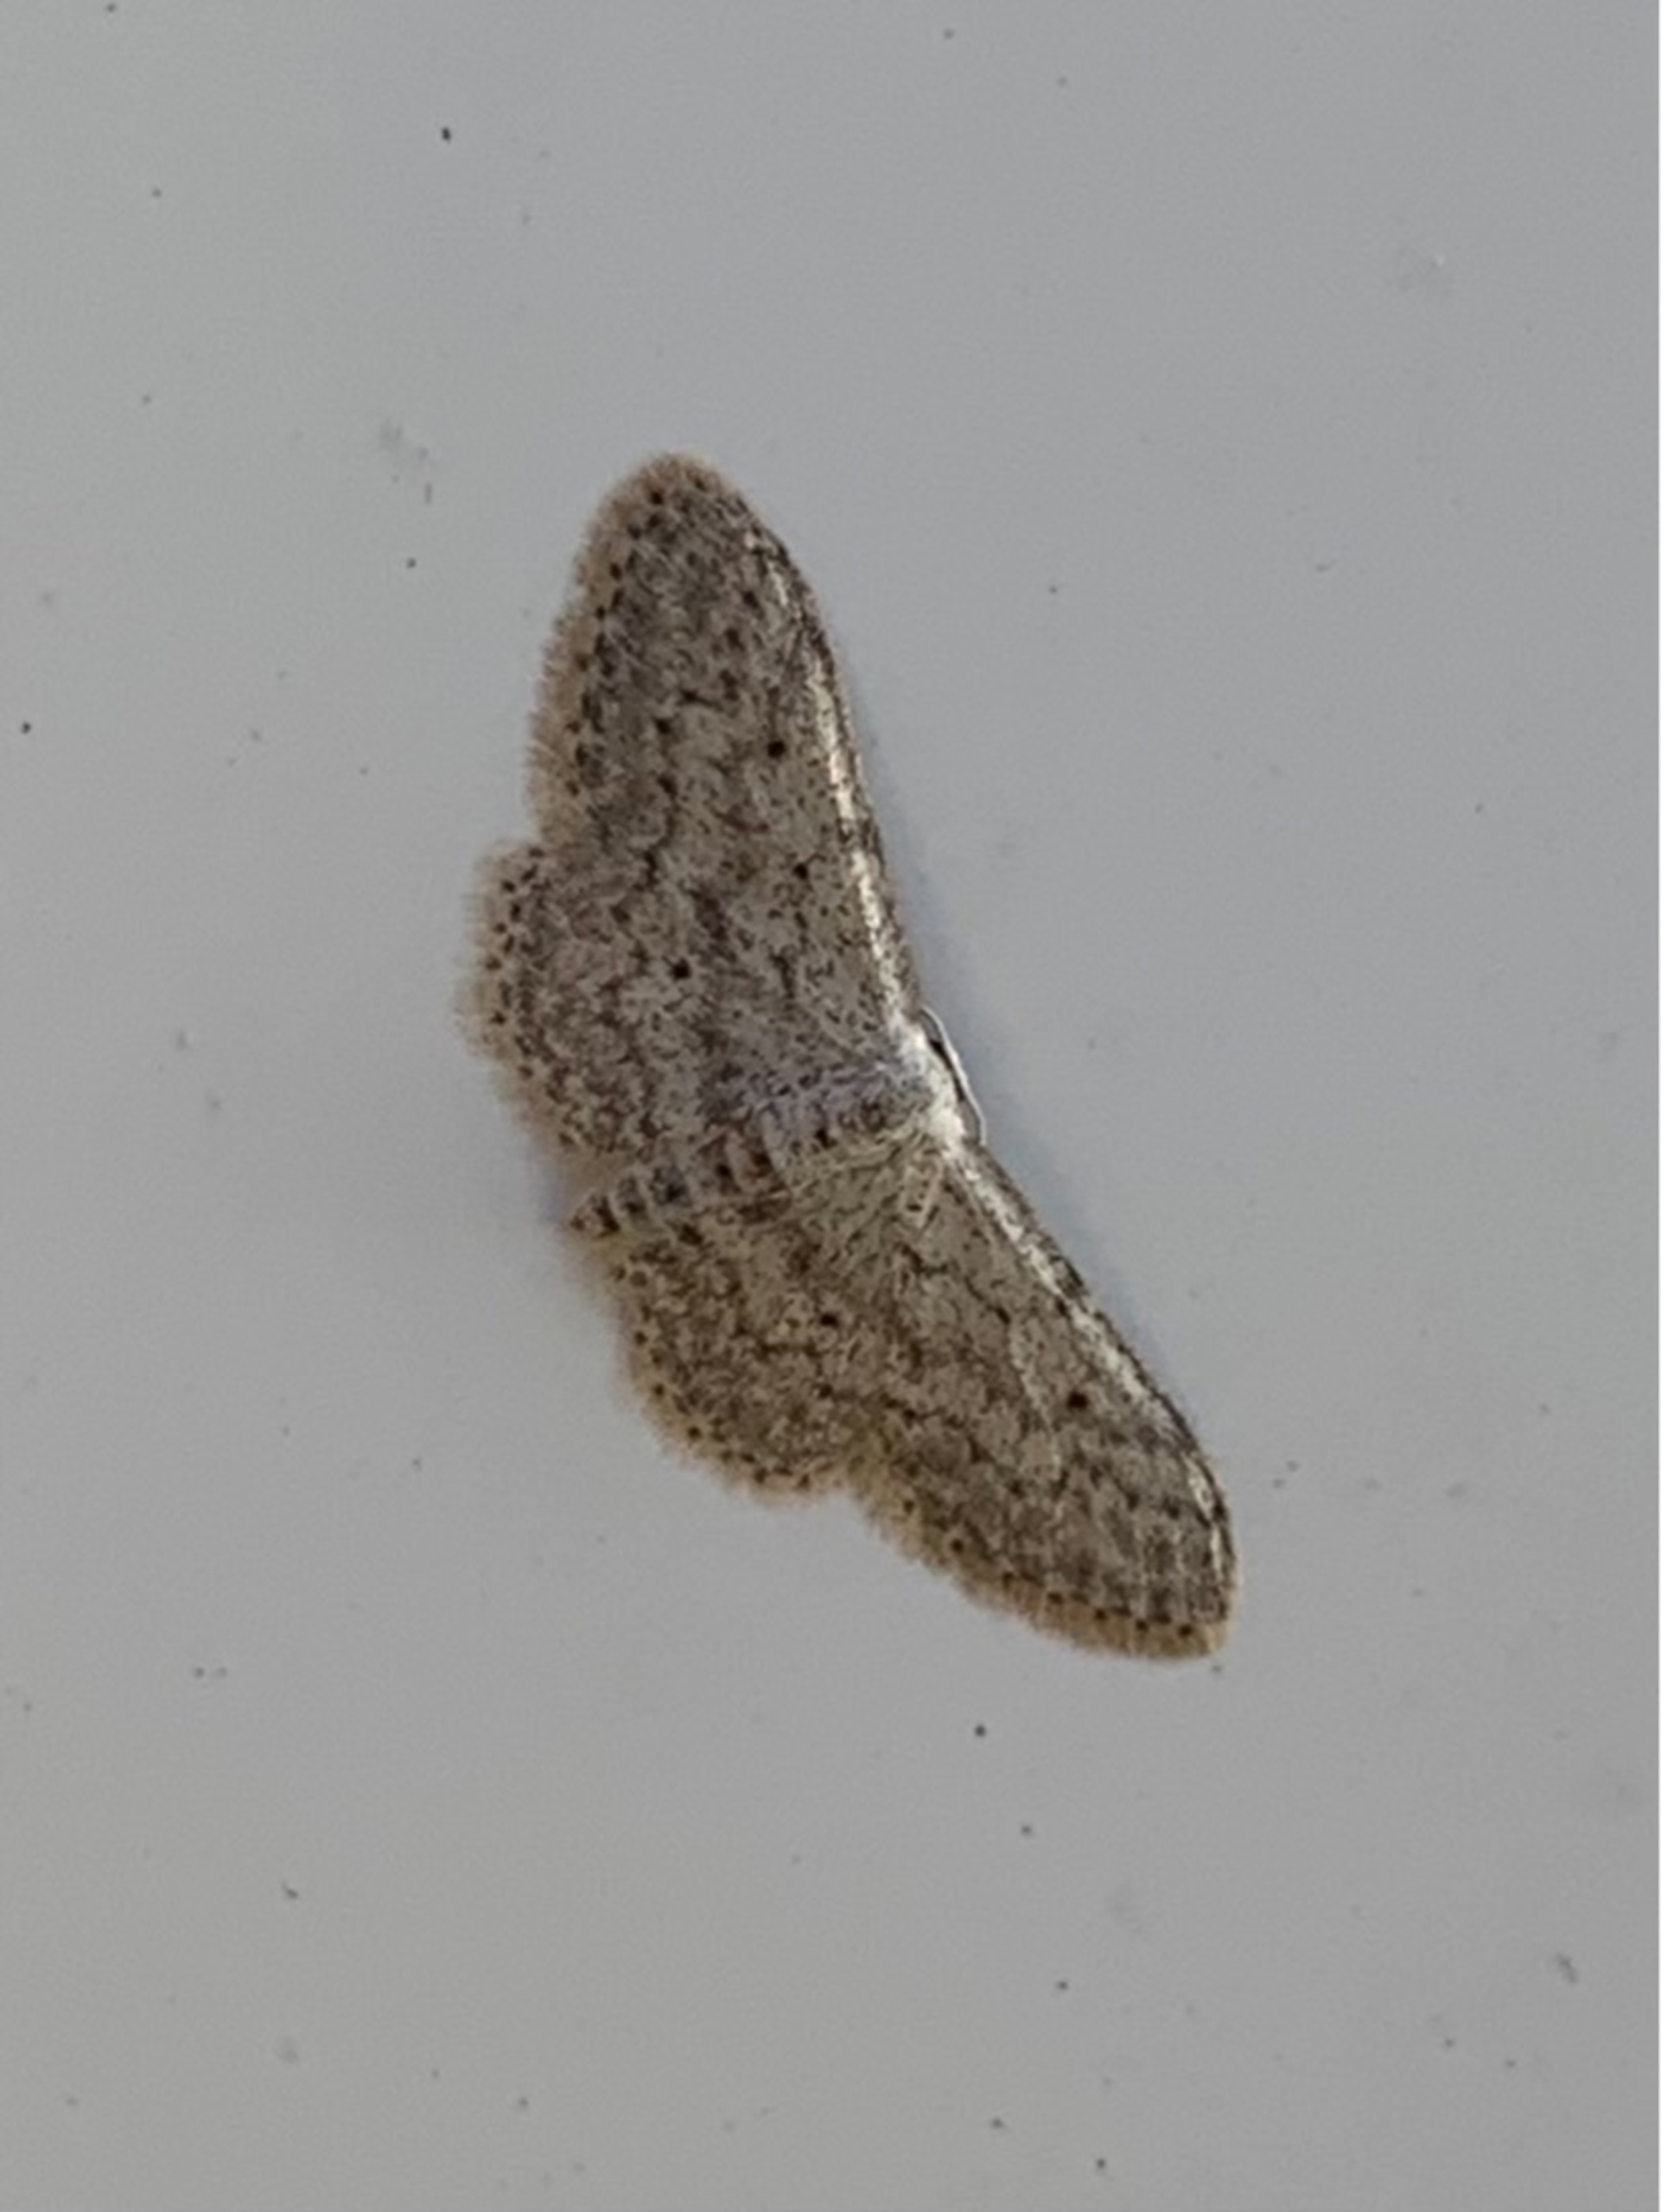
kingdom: Animalia
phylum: Arthropoda
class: Insecta
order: Lepidoptera
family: Geometridae
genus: Idaea
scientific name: Idaea seriata
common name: Gråplettet løvmåler
